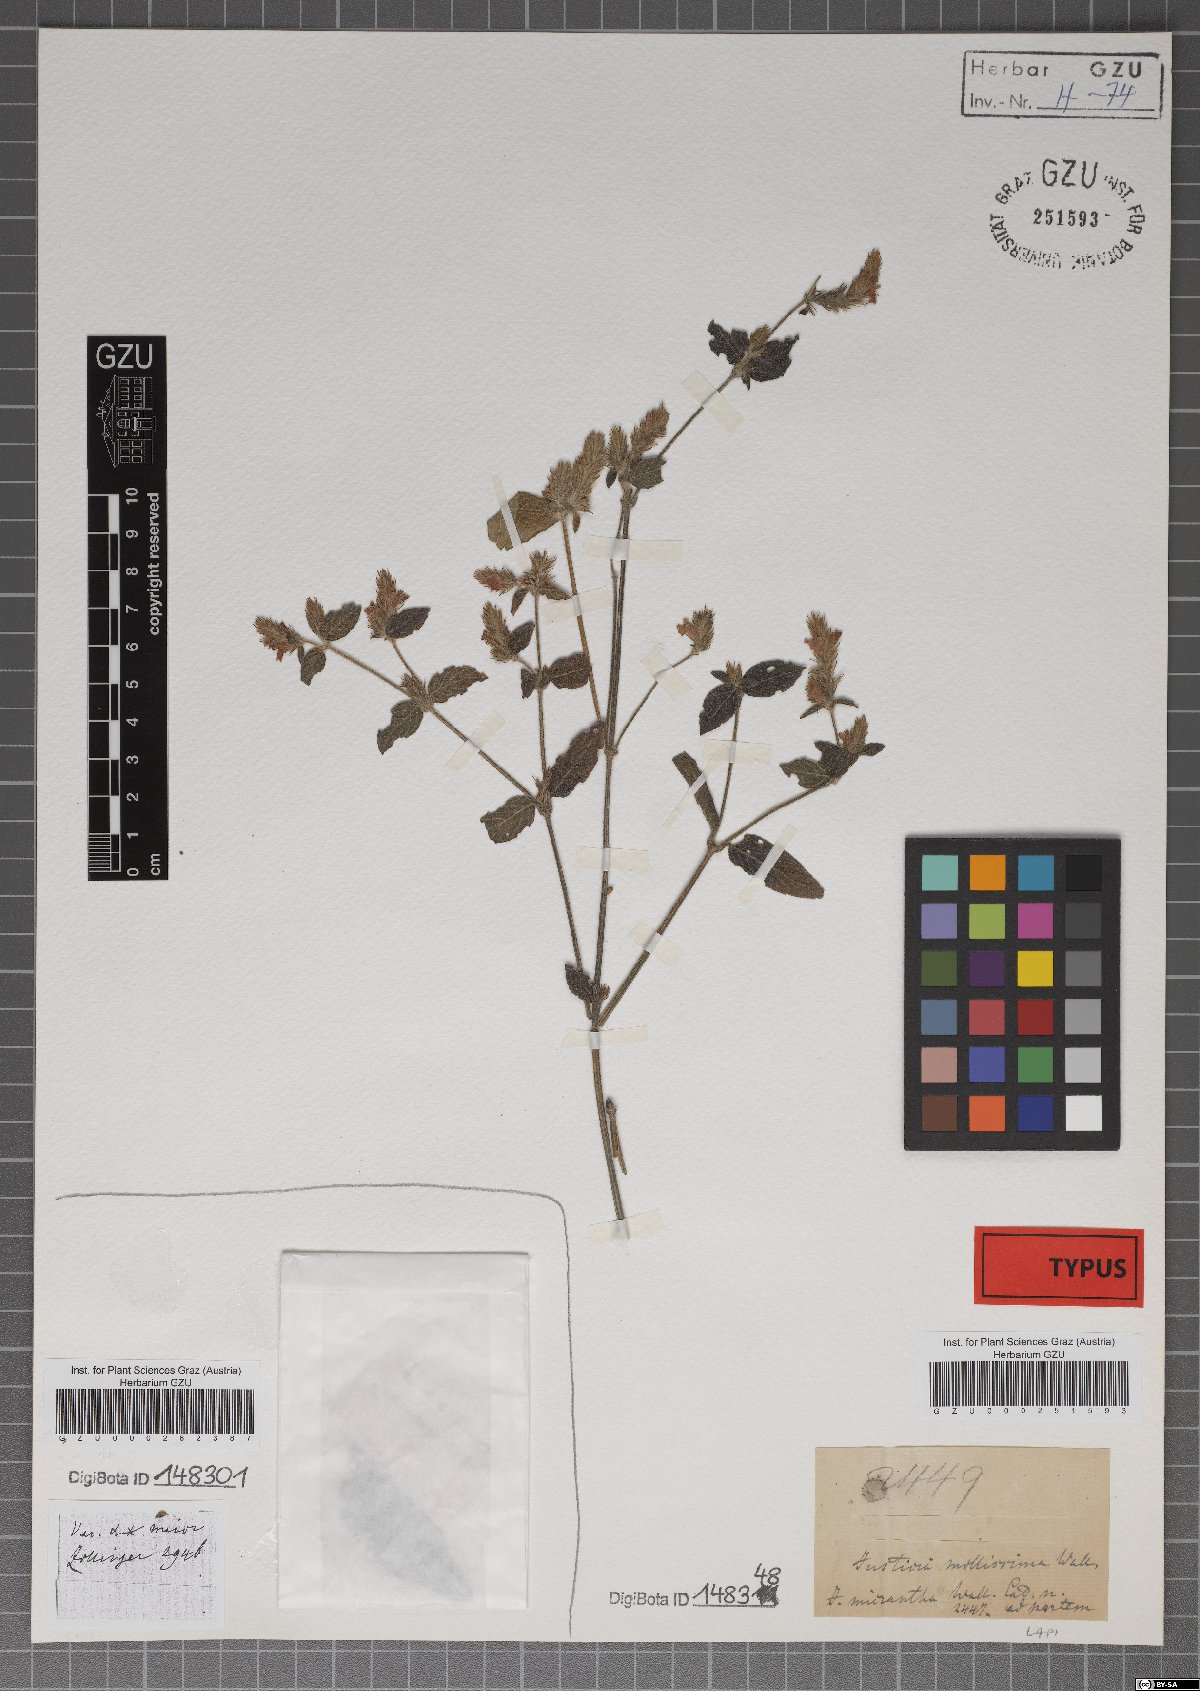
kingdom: Plantae
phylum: Tracheophyta
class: Magnoliopsida
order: Lamiales
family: Acanthaceae
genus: Rostellularia
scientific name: Rostellularia mollissima
